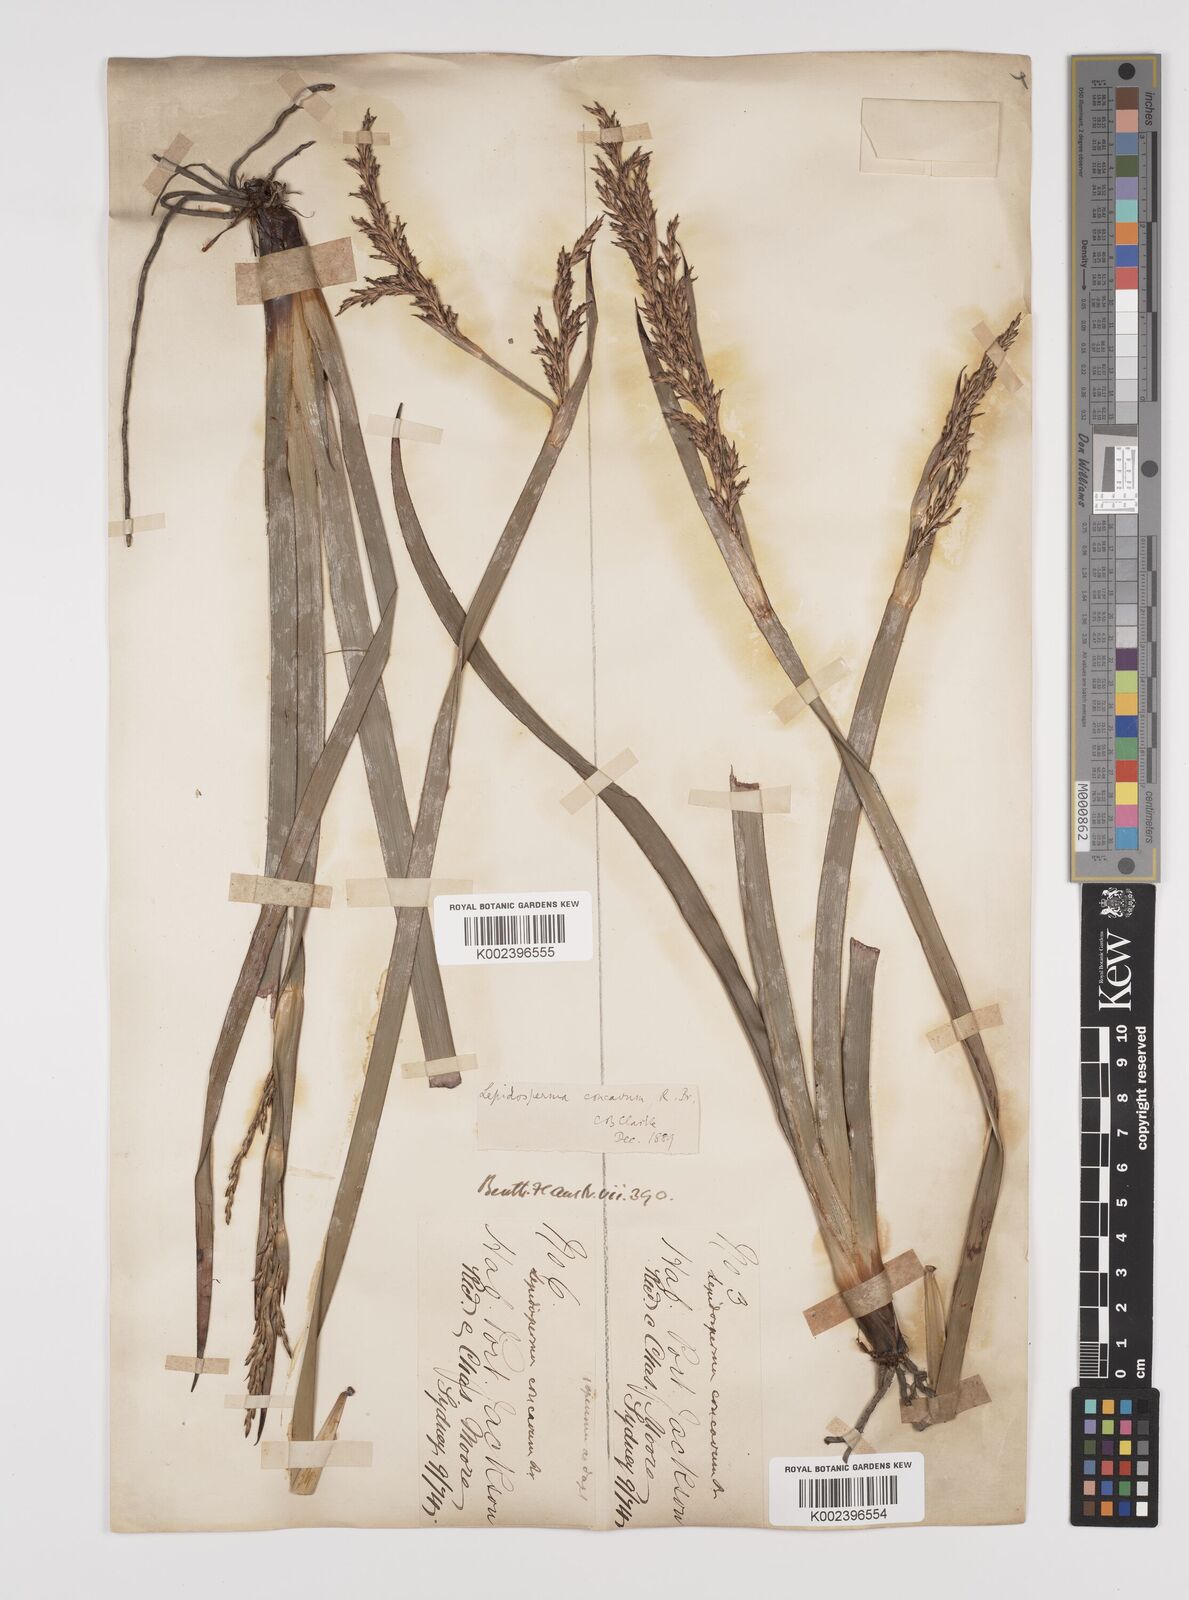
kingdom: Plantae
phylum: Tracheophyta
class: Liliopsida
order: Poales
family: Cyperaceae
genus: Lepidosperma
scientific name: Lepidosperma concavum
